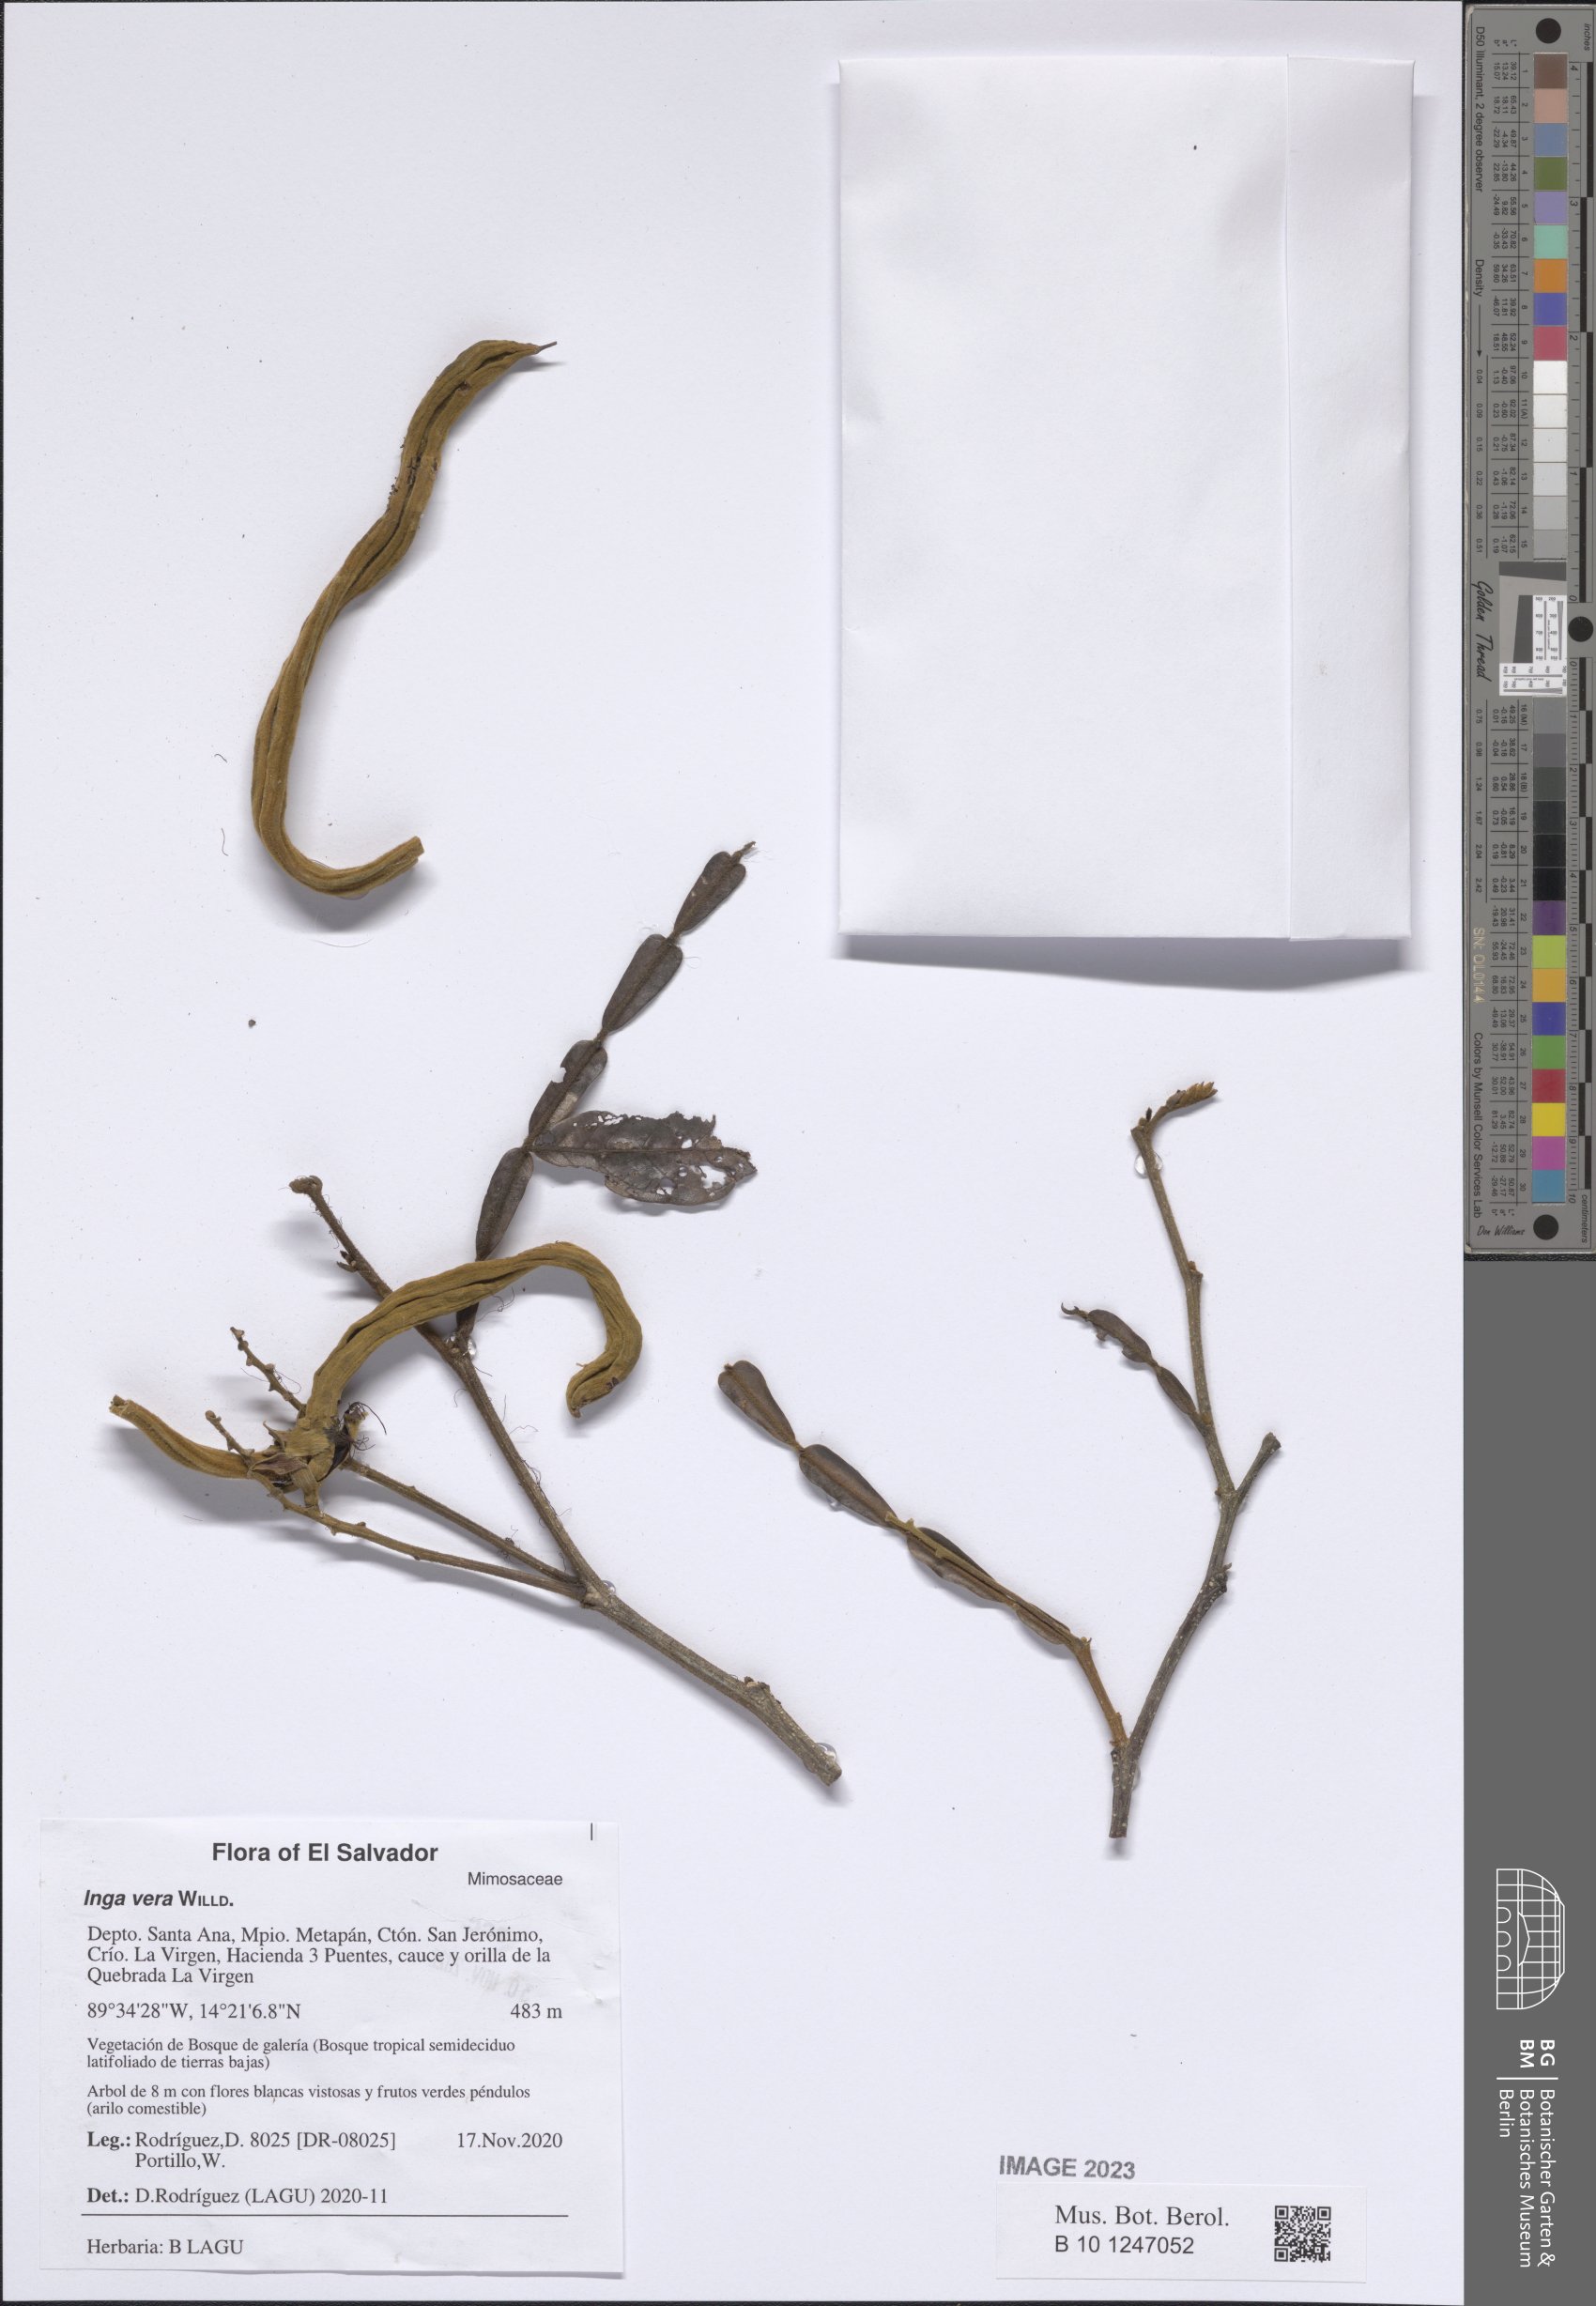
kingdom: Plantae
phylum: Tracheophyta
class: Magnoliopsida
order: Fabales
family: Fabaceae
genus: Inga
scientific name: Inga vera
